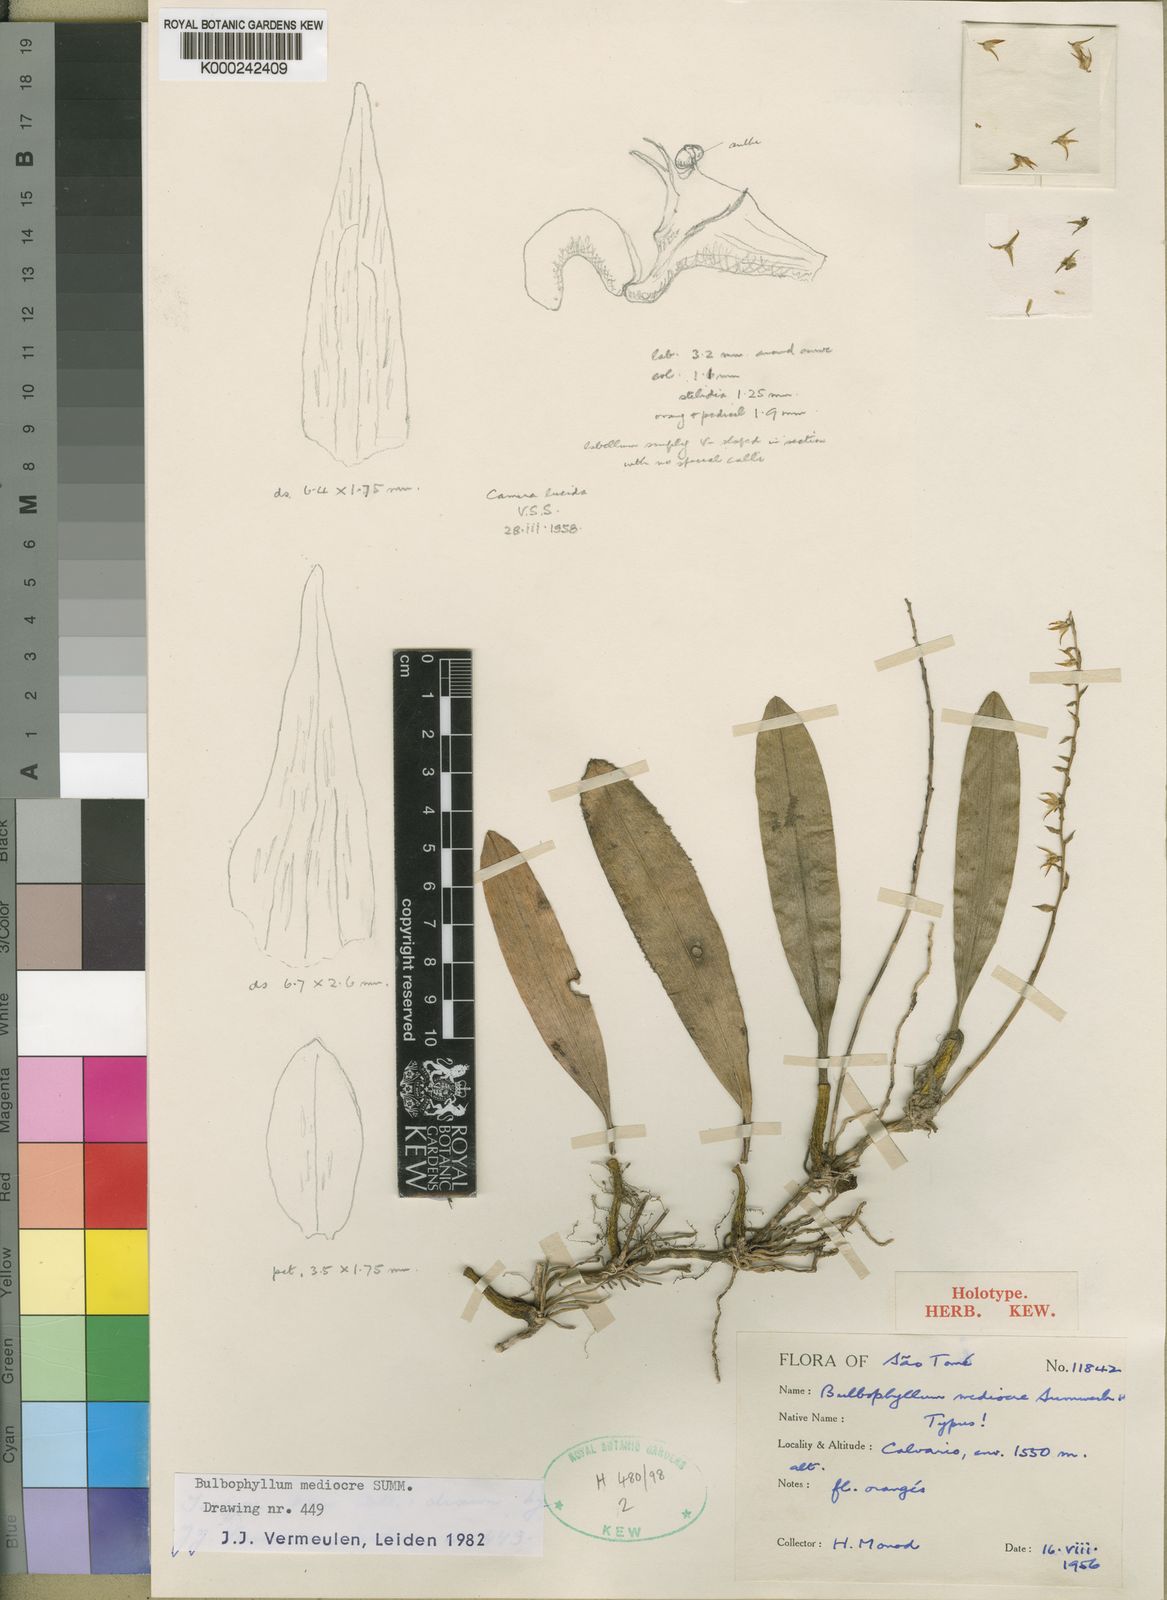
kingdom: Plantae
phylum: Tracheophyta
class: Liliopsida
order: Asparagales
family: Orchidaceae
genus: Bulbophyllum
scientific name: Bulbophyllum
